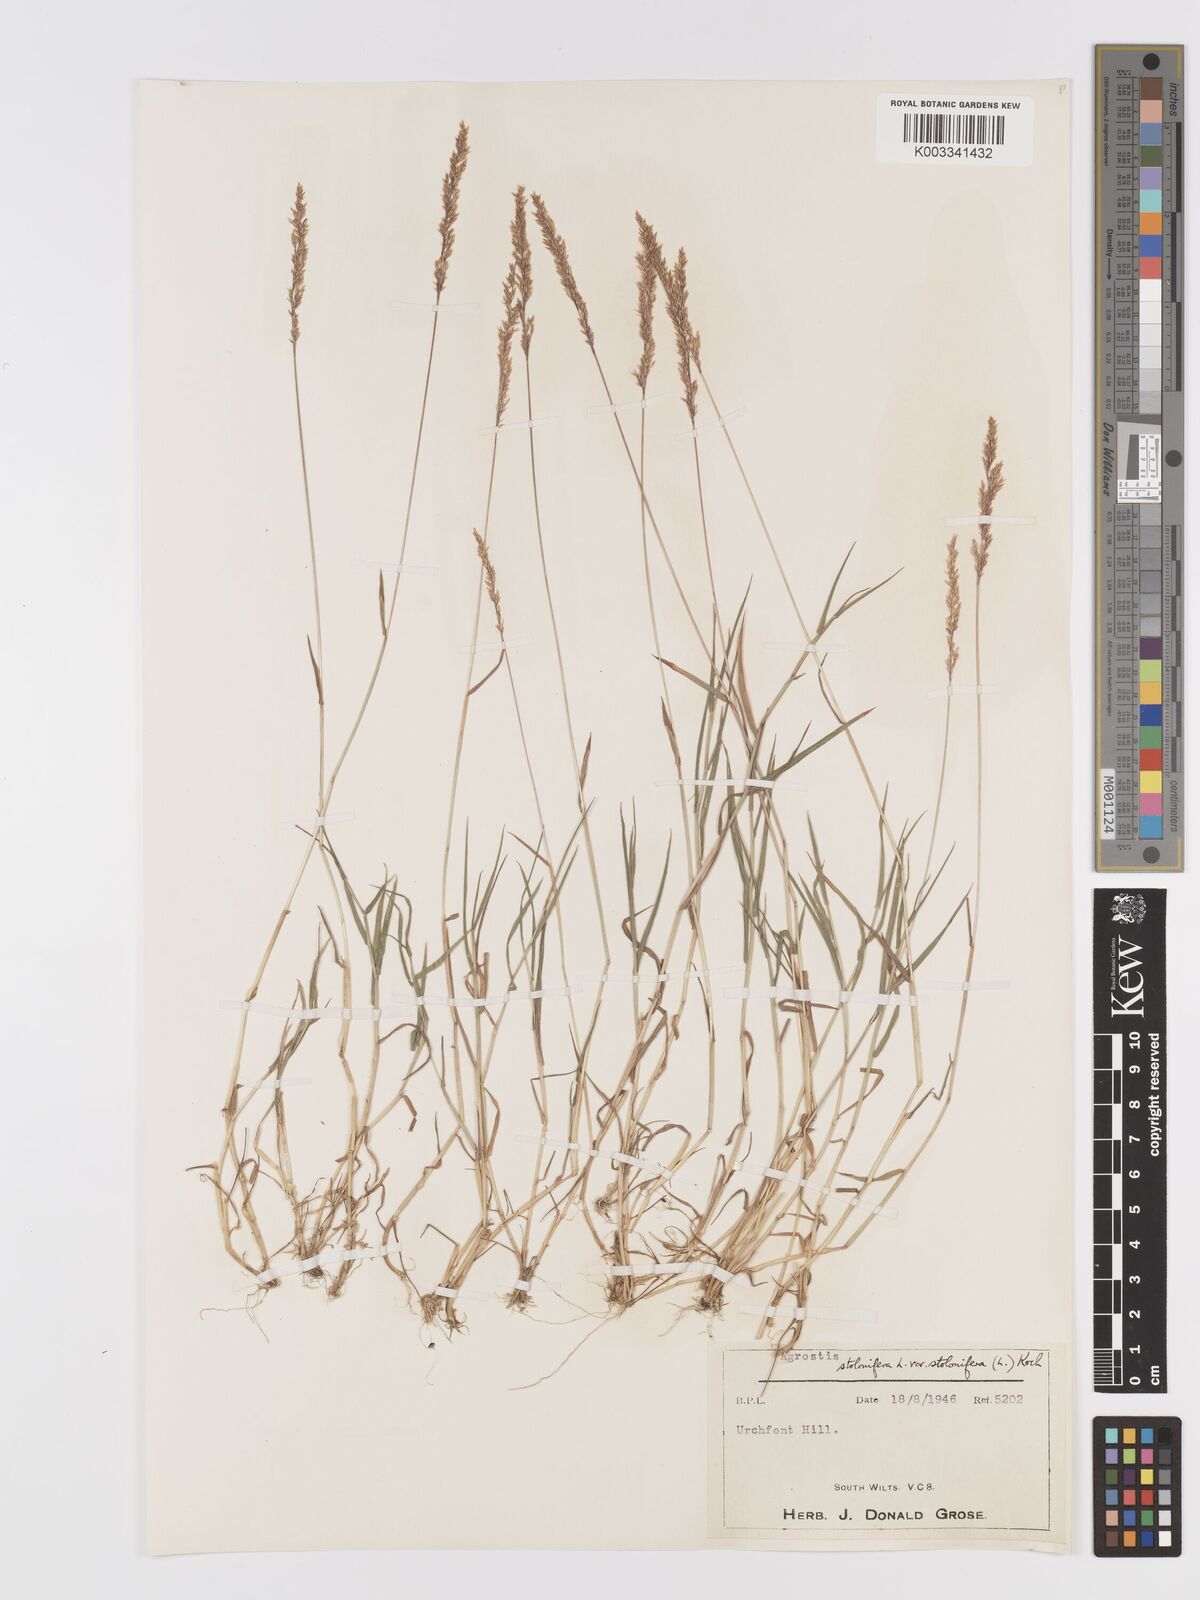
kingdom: Plantae
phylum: Tracheophyta
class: Liliopsida
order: Poales
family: Poaceae
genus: Agrostis
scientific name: Agrostis stolonifera
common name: Creeping bentgrass
